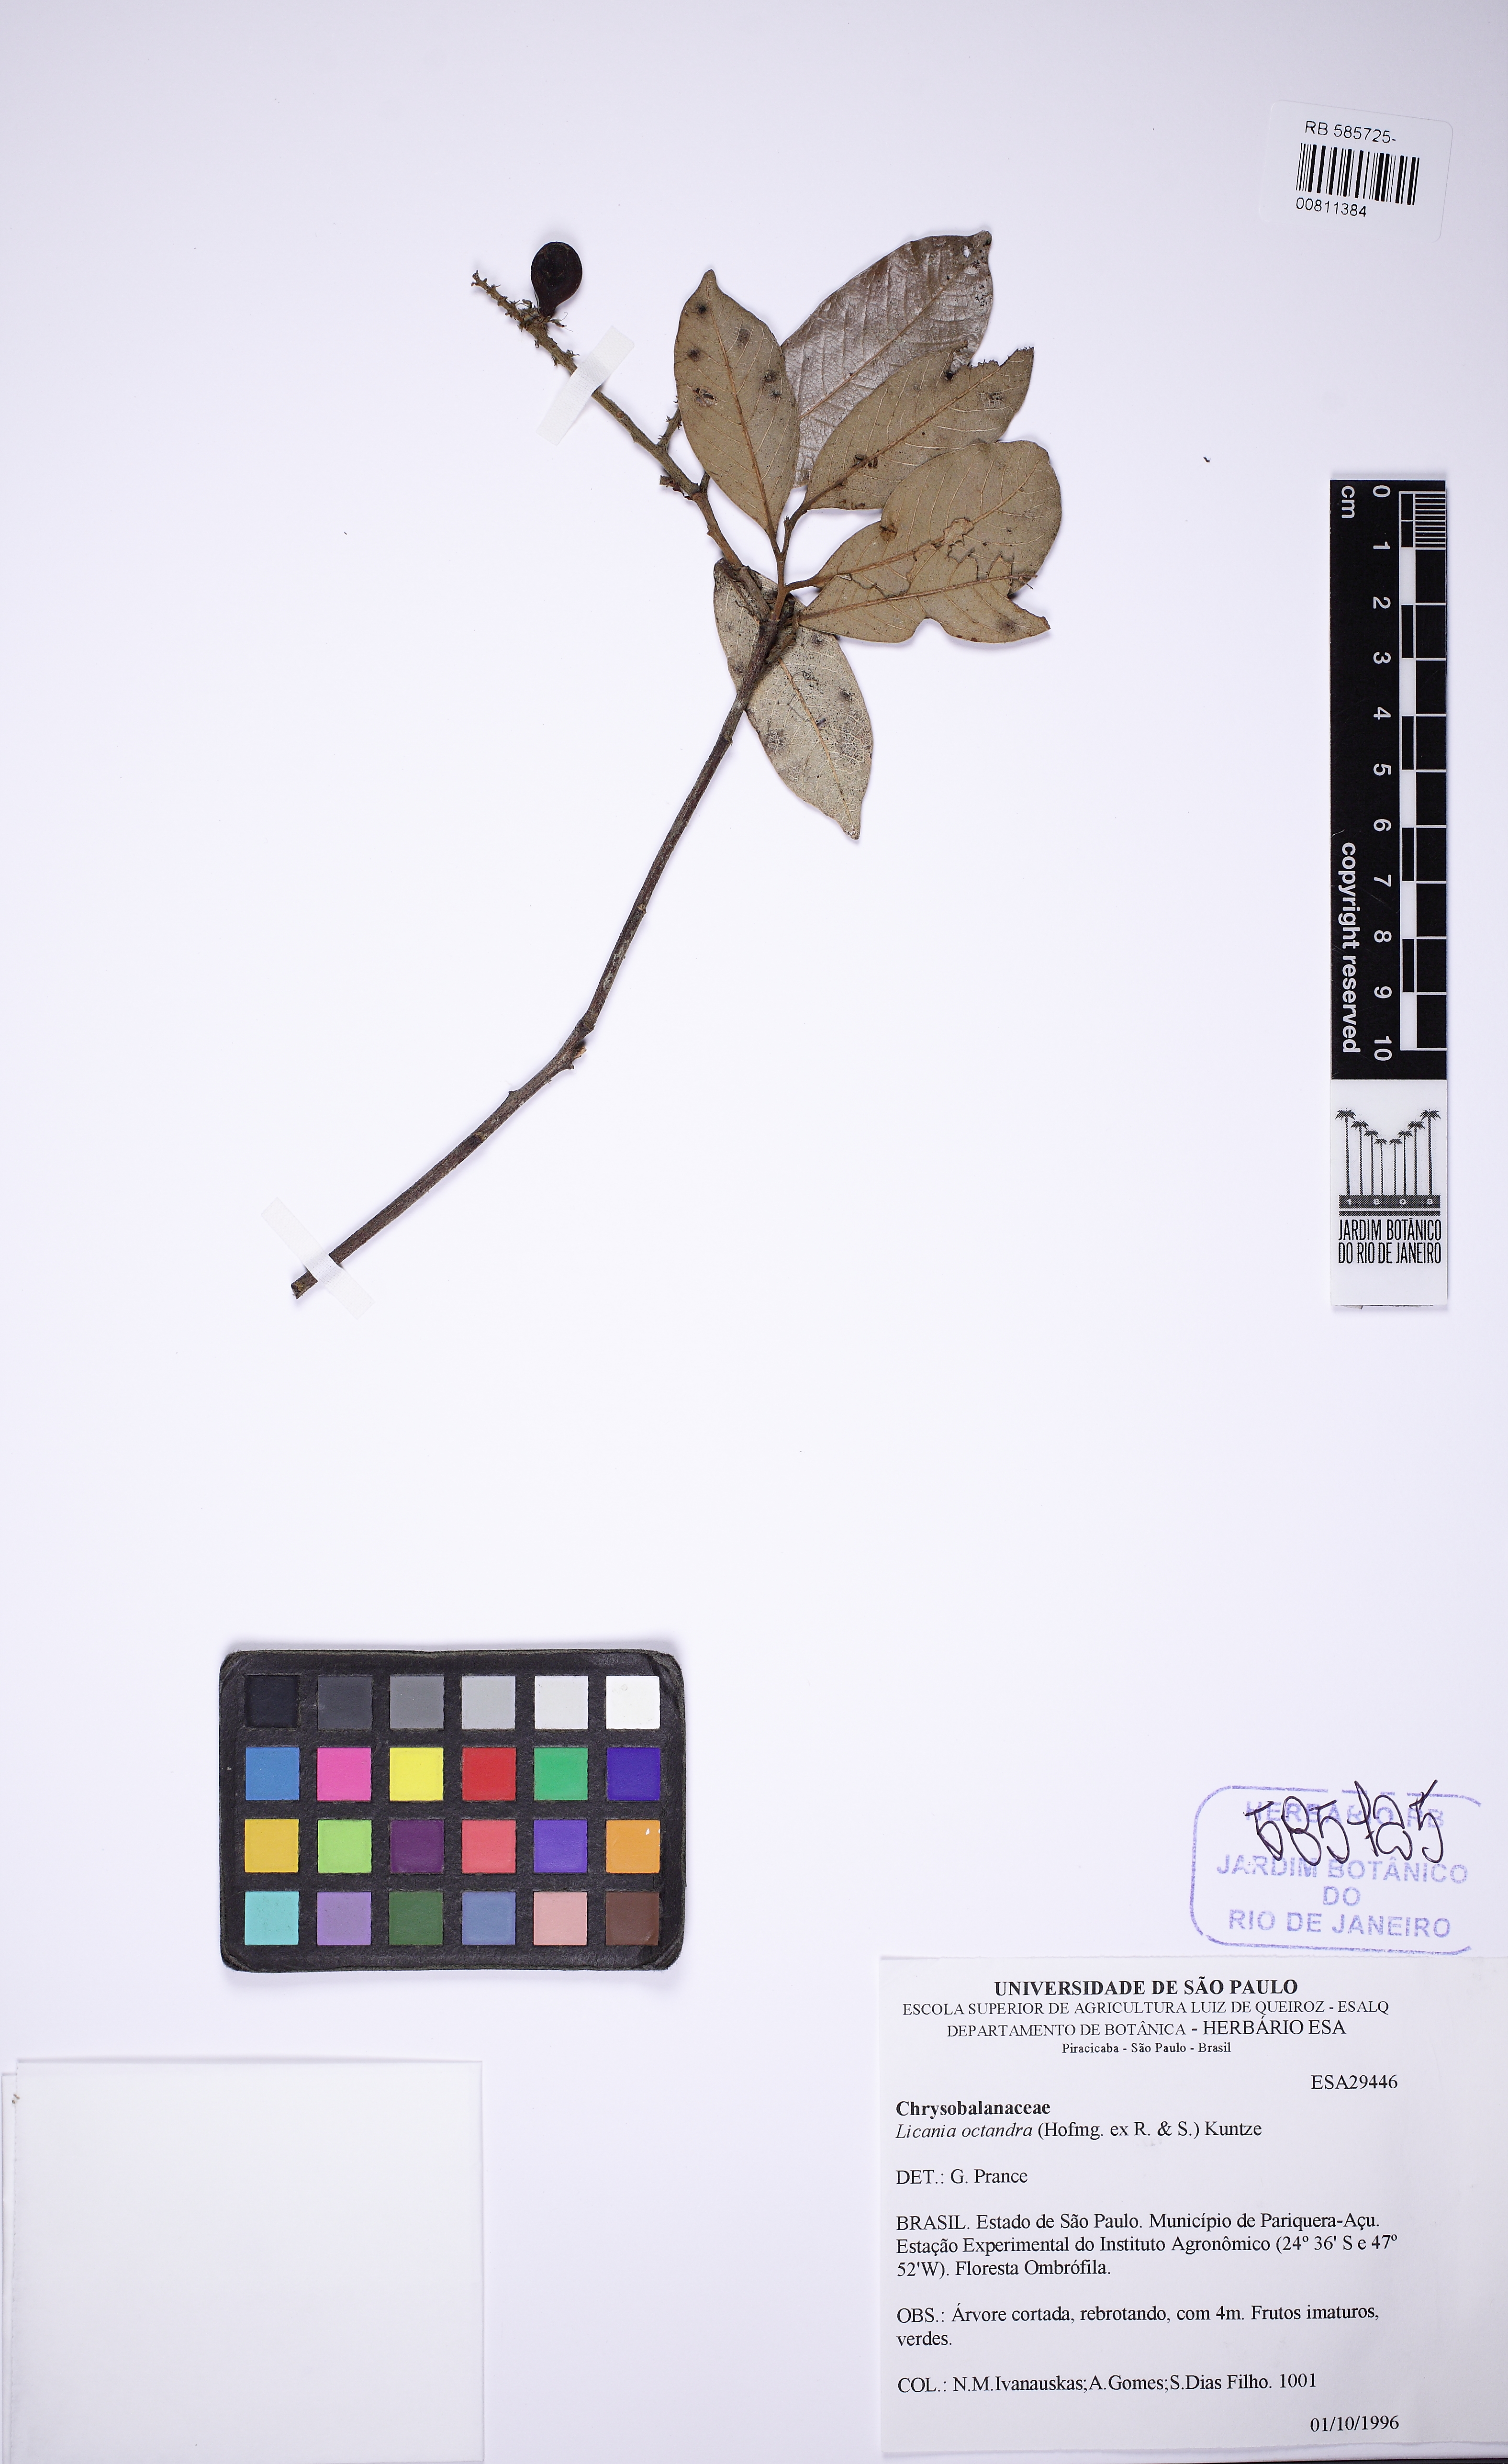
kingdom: Plantae
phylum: Tracheophyta
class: Magnoliopsida
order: Malpighiales
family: Chrysobalanaceae
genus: Leptobalanus
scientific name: Leptobalanus octandrus
